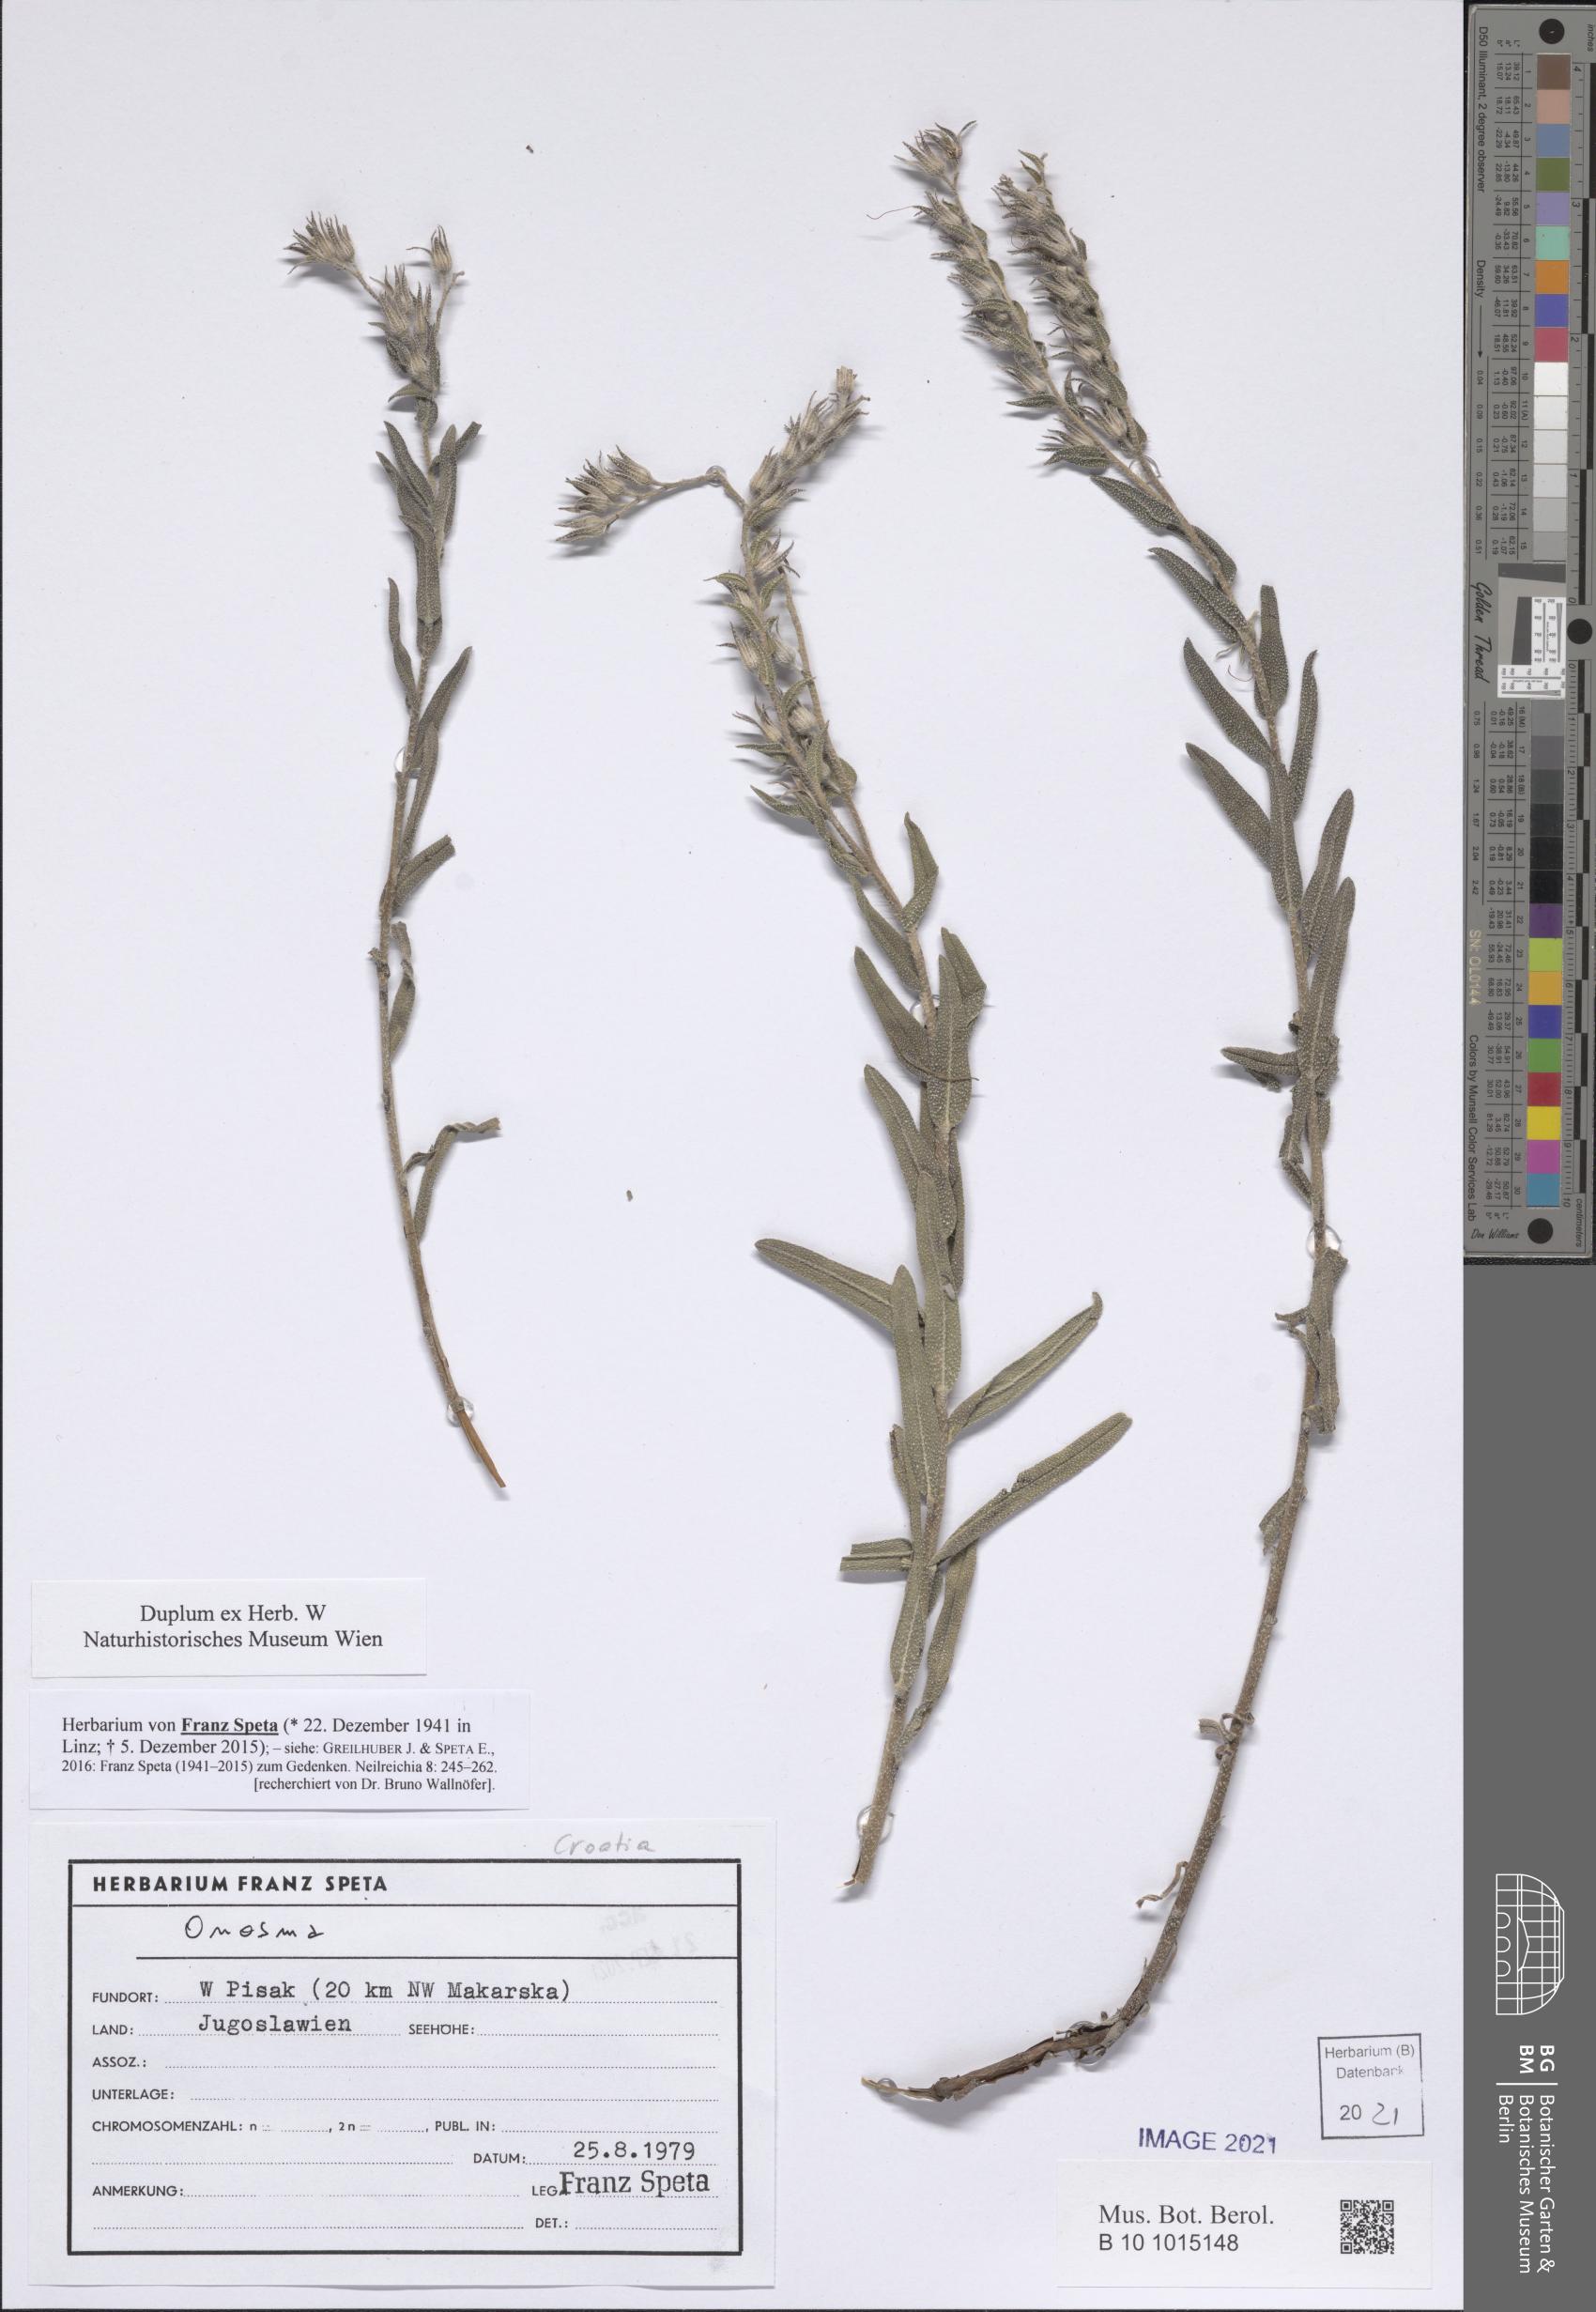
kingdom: Plantae
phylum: Tracheophyta
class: Magnoliopsida
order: Boraginales
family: Boraginaceae
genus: Onosma
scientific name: Onosma
